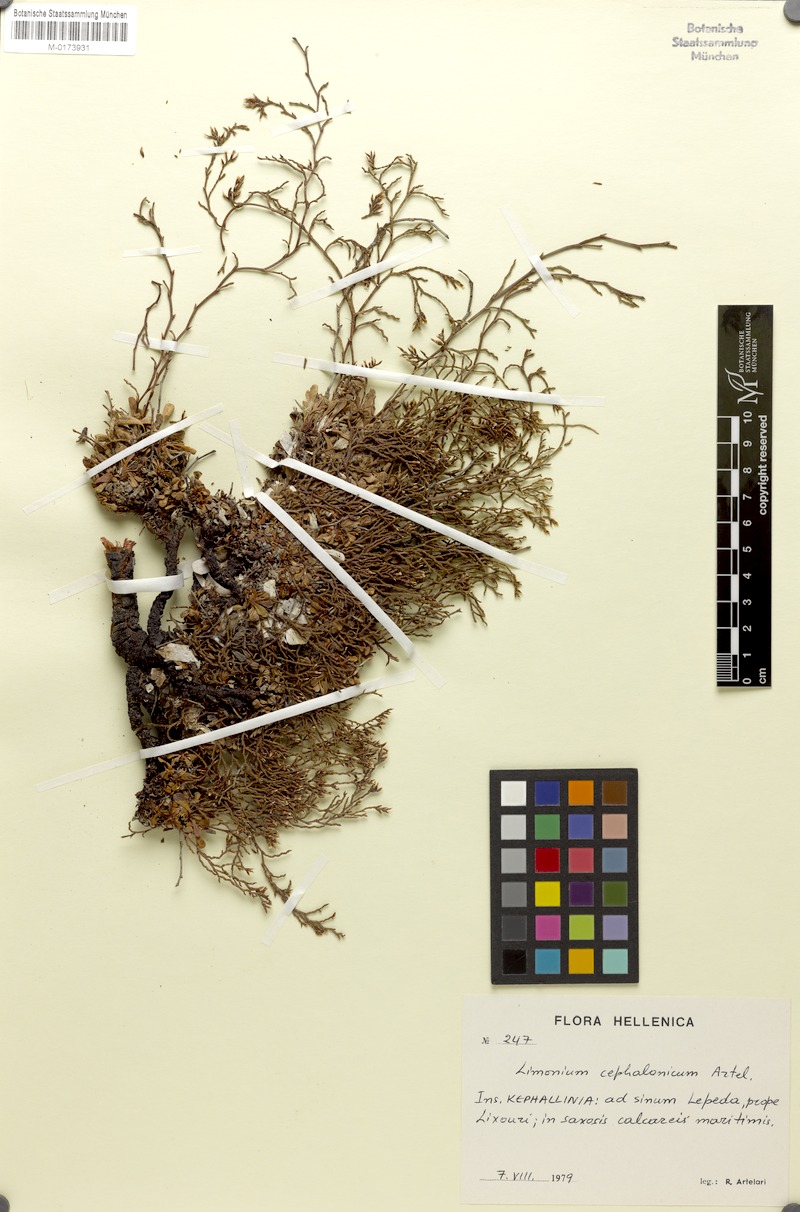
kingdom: Plantae
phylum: Tracheophyta
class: Magnoliopsida
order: Caryophyllales
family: Plumbaginaceae
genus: Limonium
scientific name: Limonium cephalonicum
